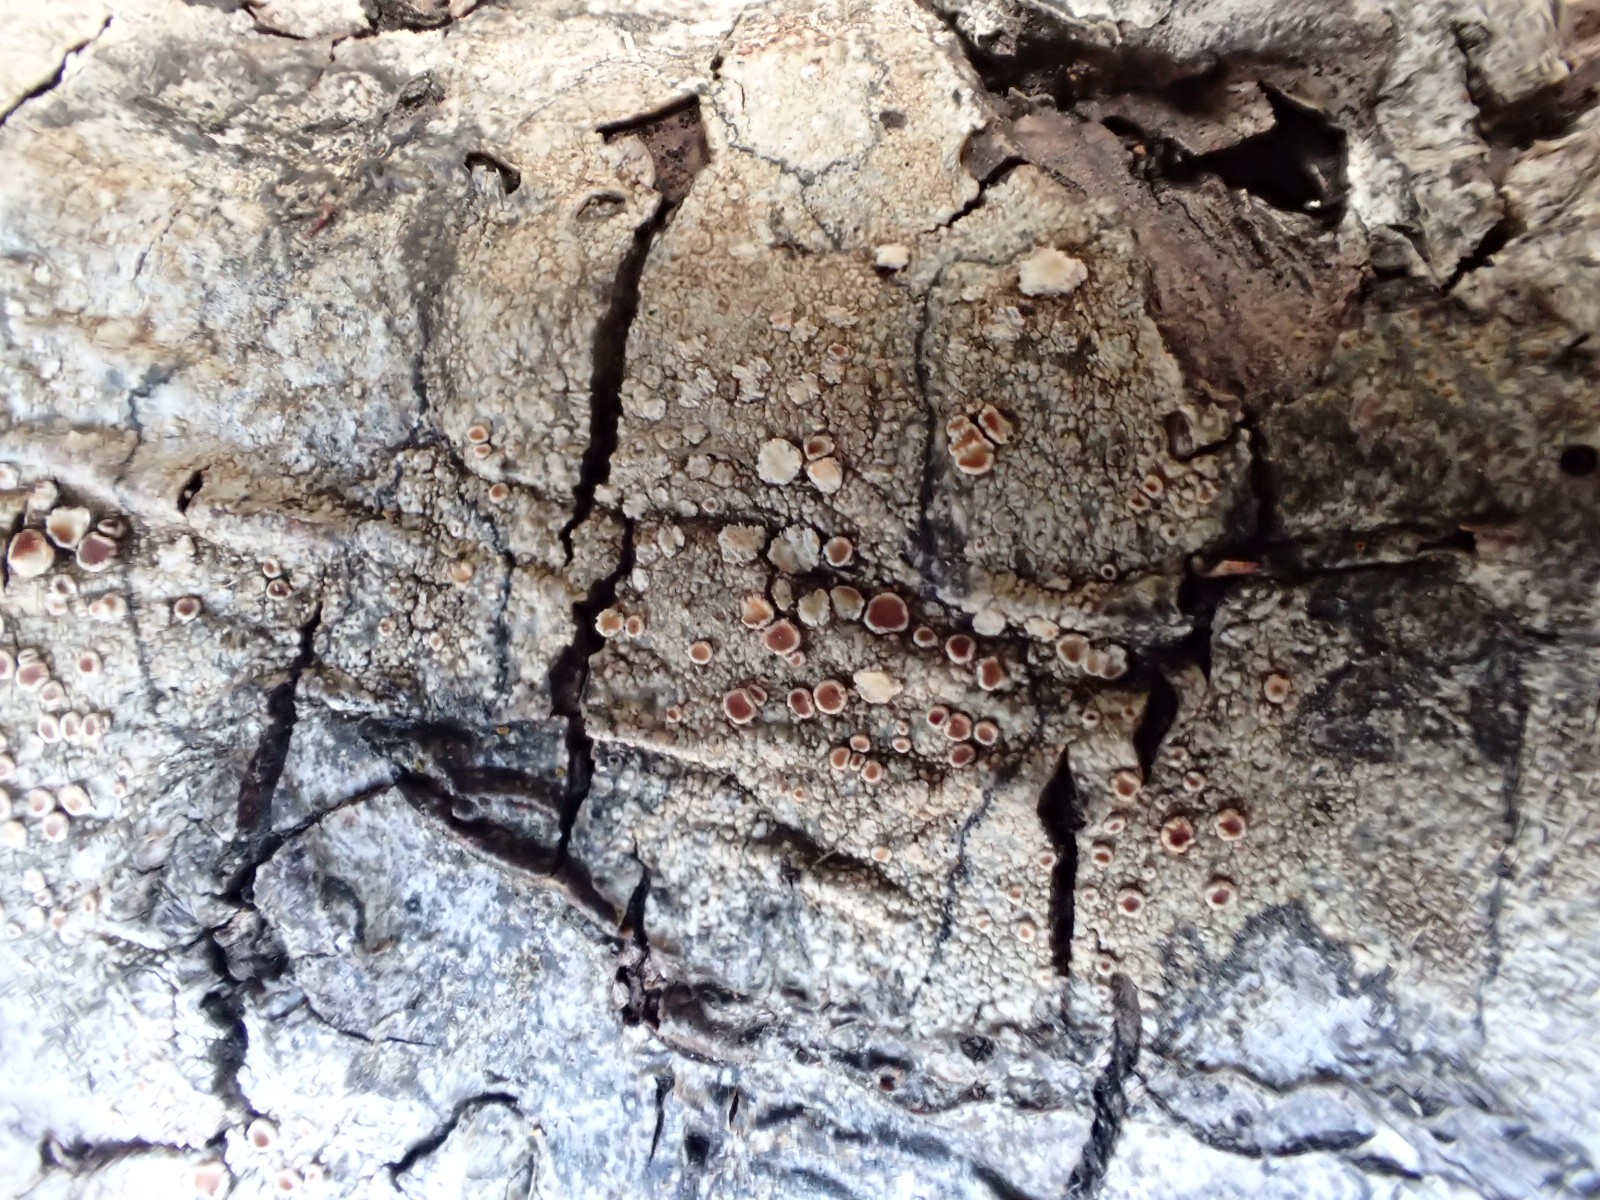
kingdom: Fungi
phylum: Ascomycota
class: Lecanoromycetes
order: Lecanorales
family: Lecanoraceae
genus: Lecanora
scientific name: Lecanora chlarotera
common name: brun kantskivelav
